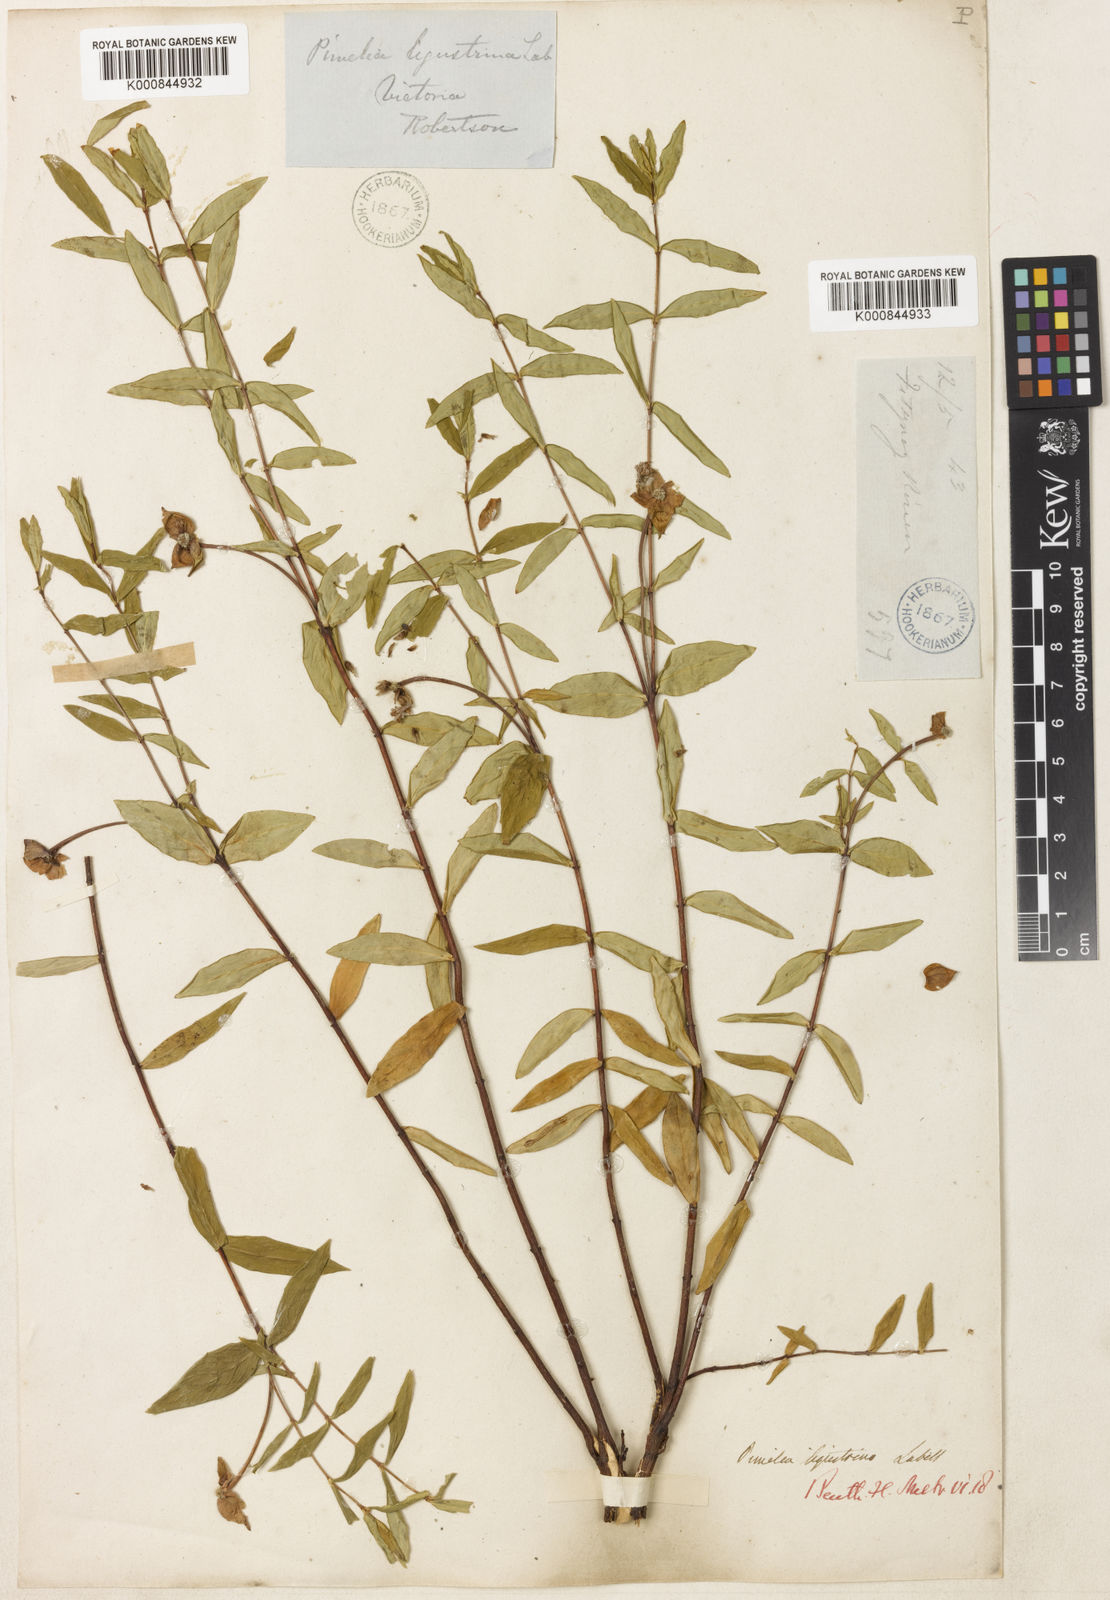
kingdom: Plantae
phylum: Tracheophyta
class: Magnoliopsida
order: Malvales
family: Thymelaeaceae
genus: Pimelea
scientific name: Pimelea ligustrina
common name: Tall riceflower
